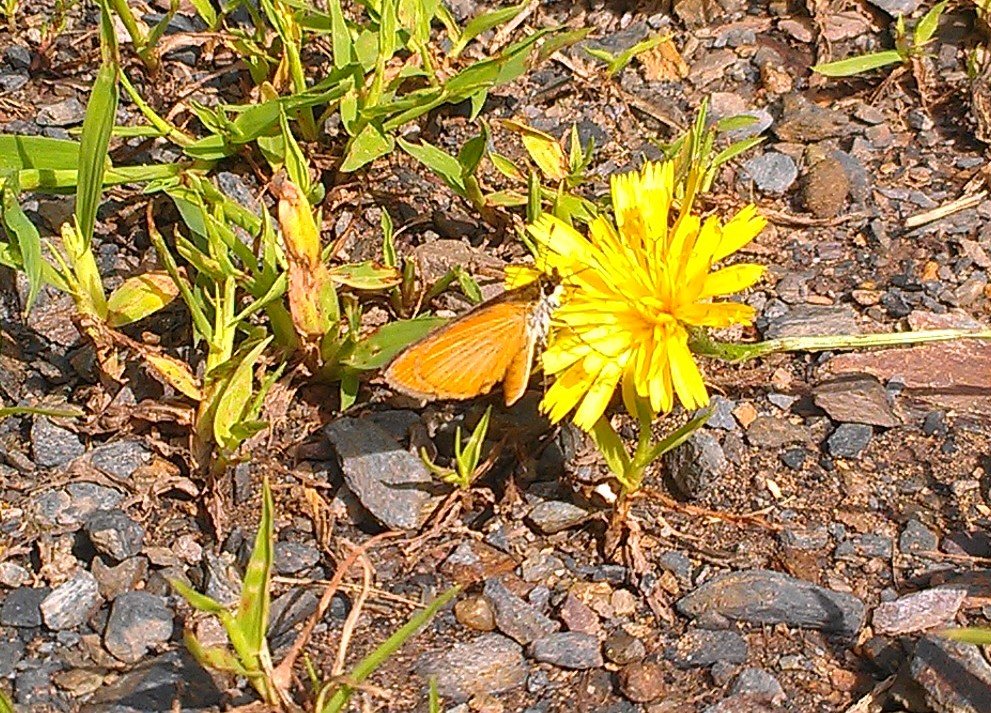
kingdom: Animalia
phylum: Arthropoda
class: Insecta
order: Lepidoptera
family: Hesperiidae
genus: Ancyloxypha
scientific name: Ancyloxypha numitor
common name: Least Skipper
